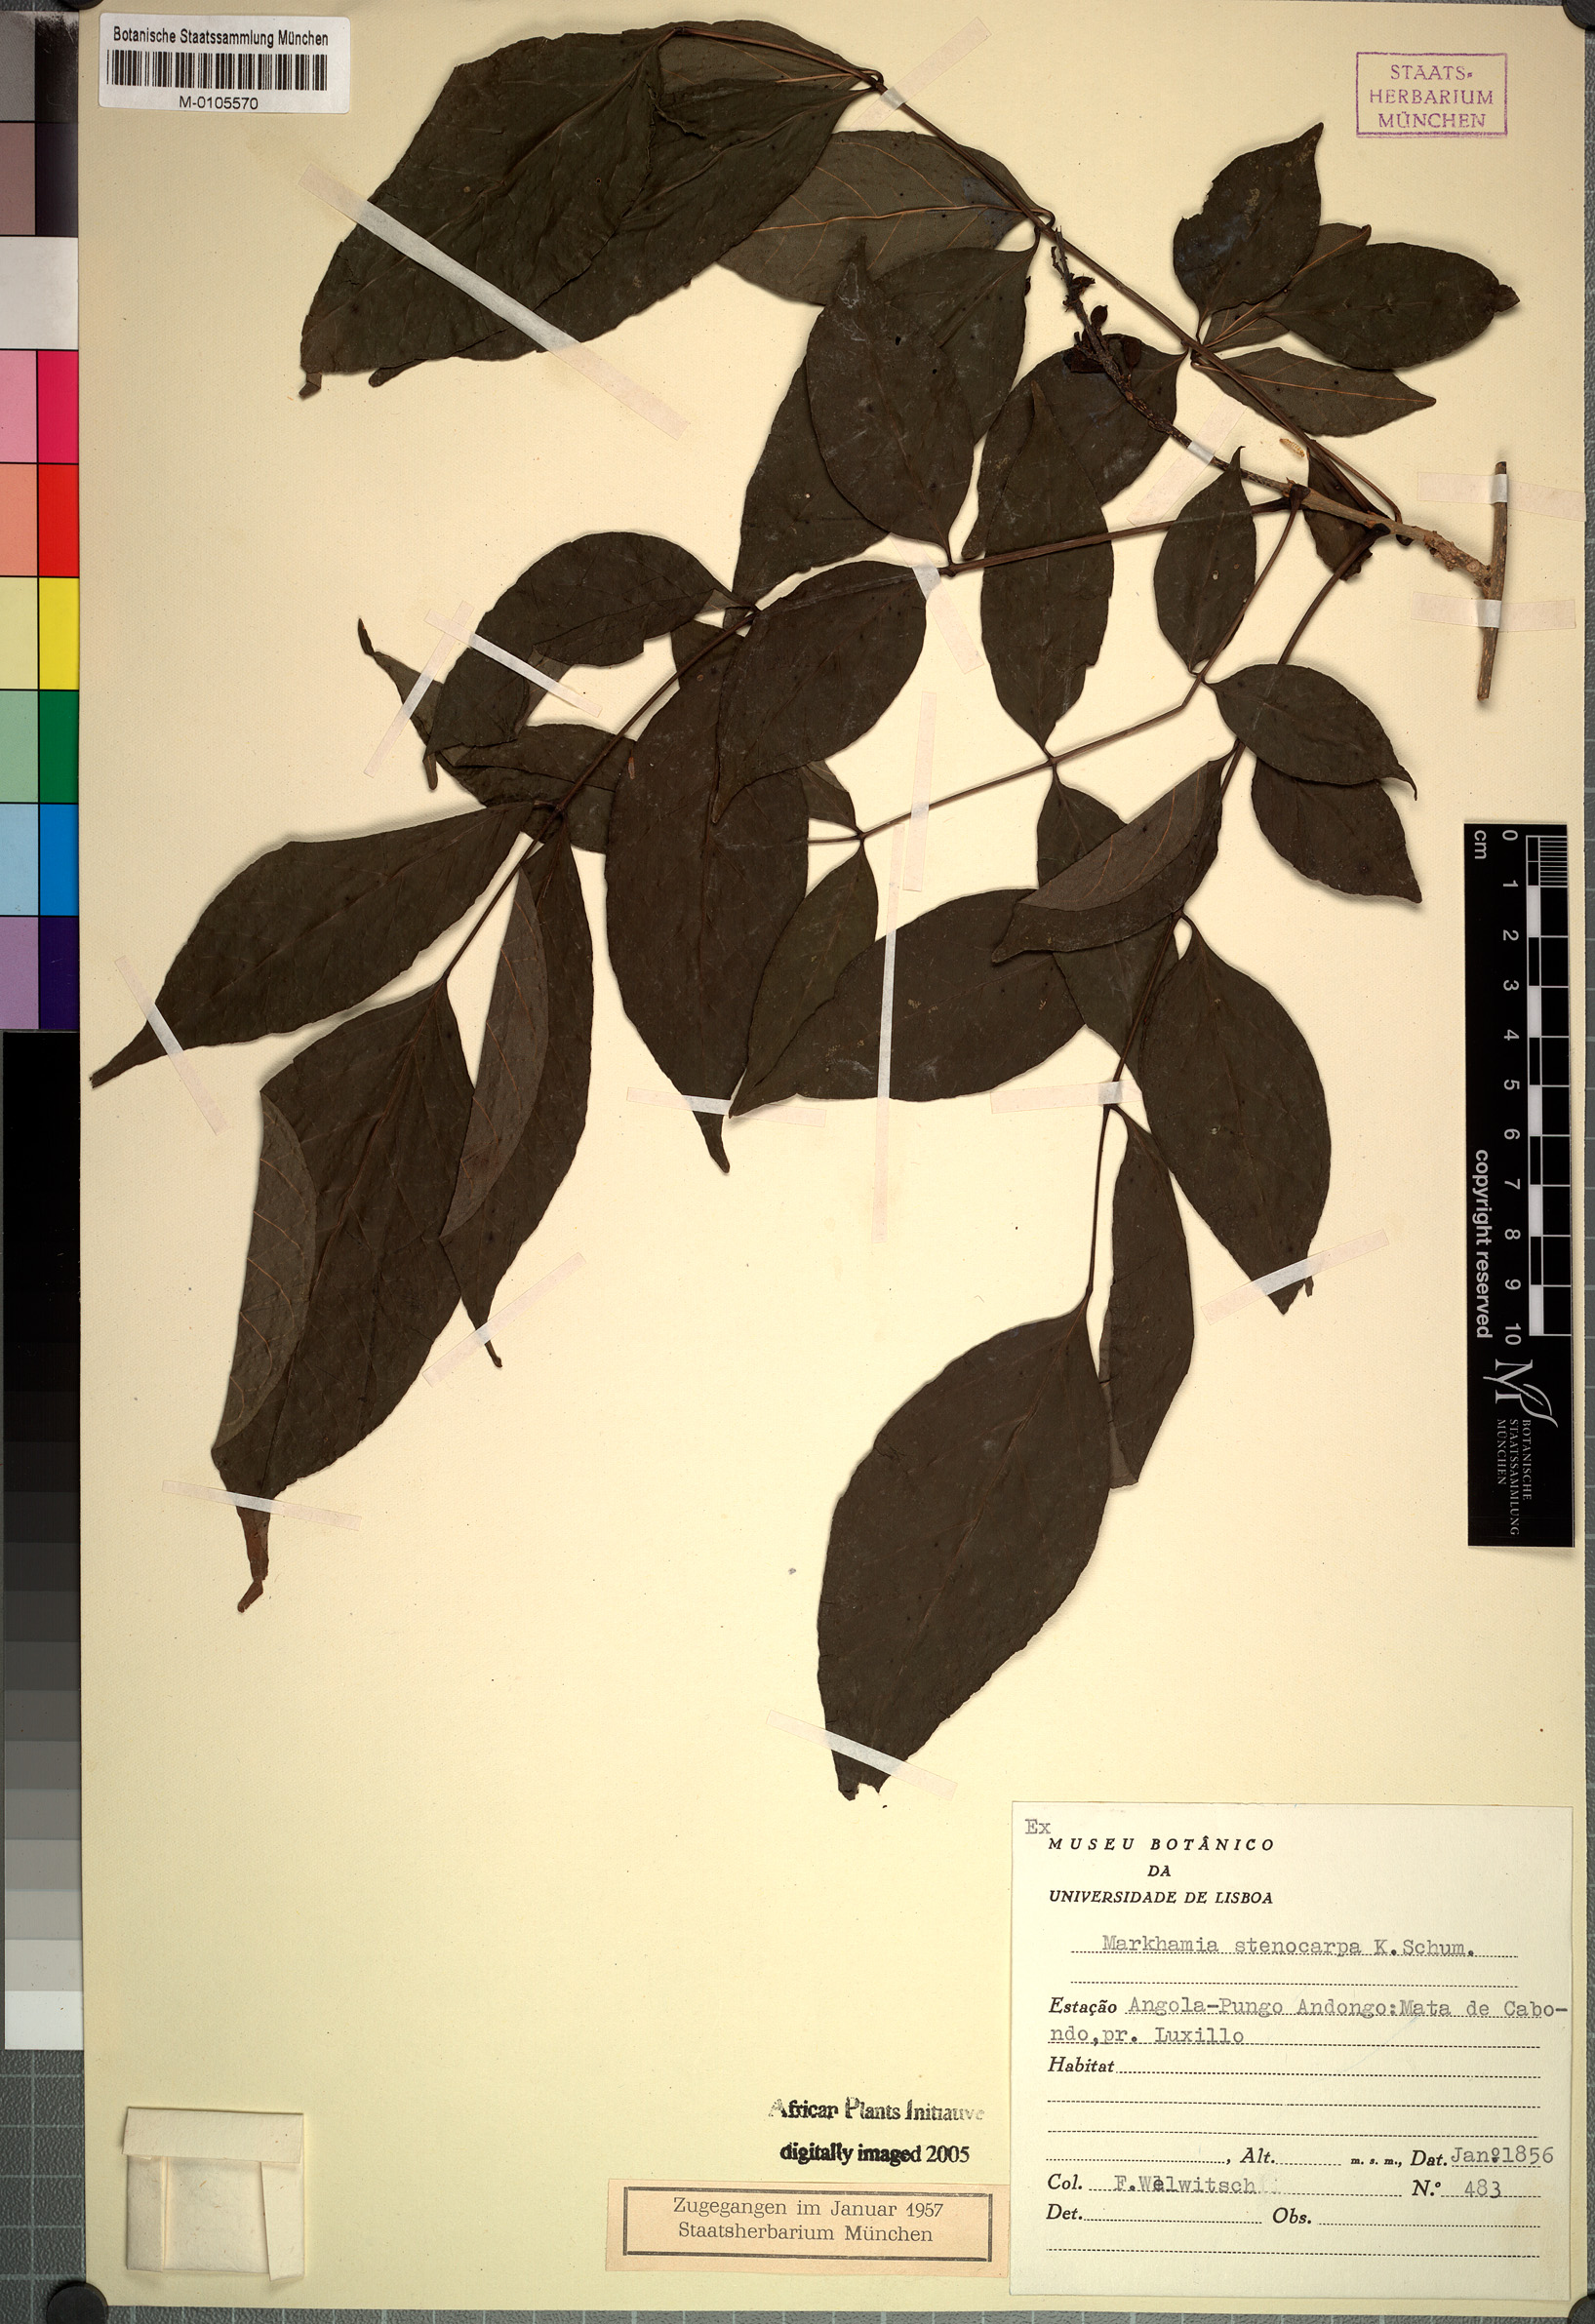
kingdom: Plantae
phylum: Tracheophyta
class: Magnoliopsida
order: Lamiales
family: Bignoniaceae
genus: Markhamia
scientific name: Markhamia zanzibarica
